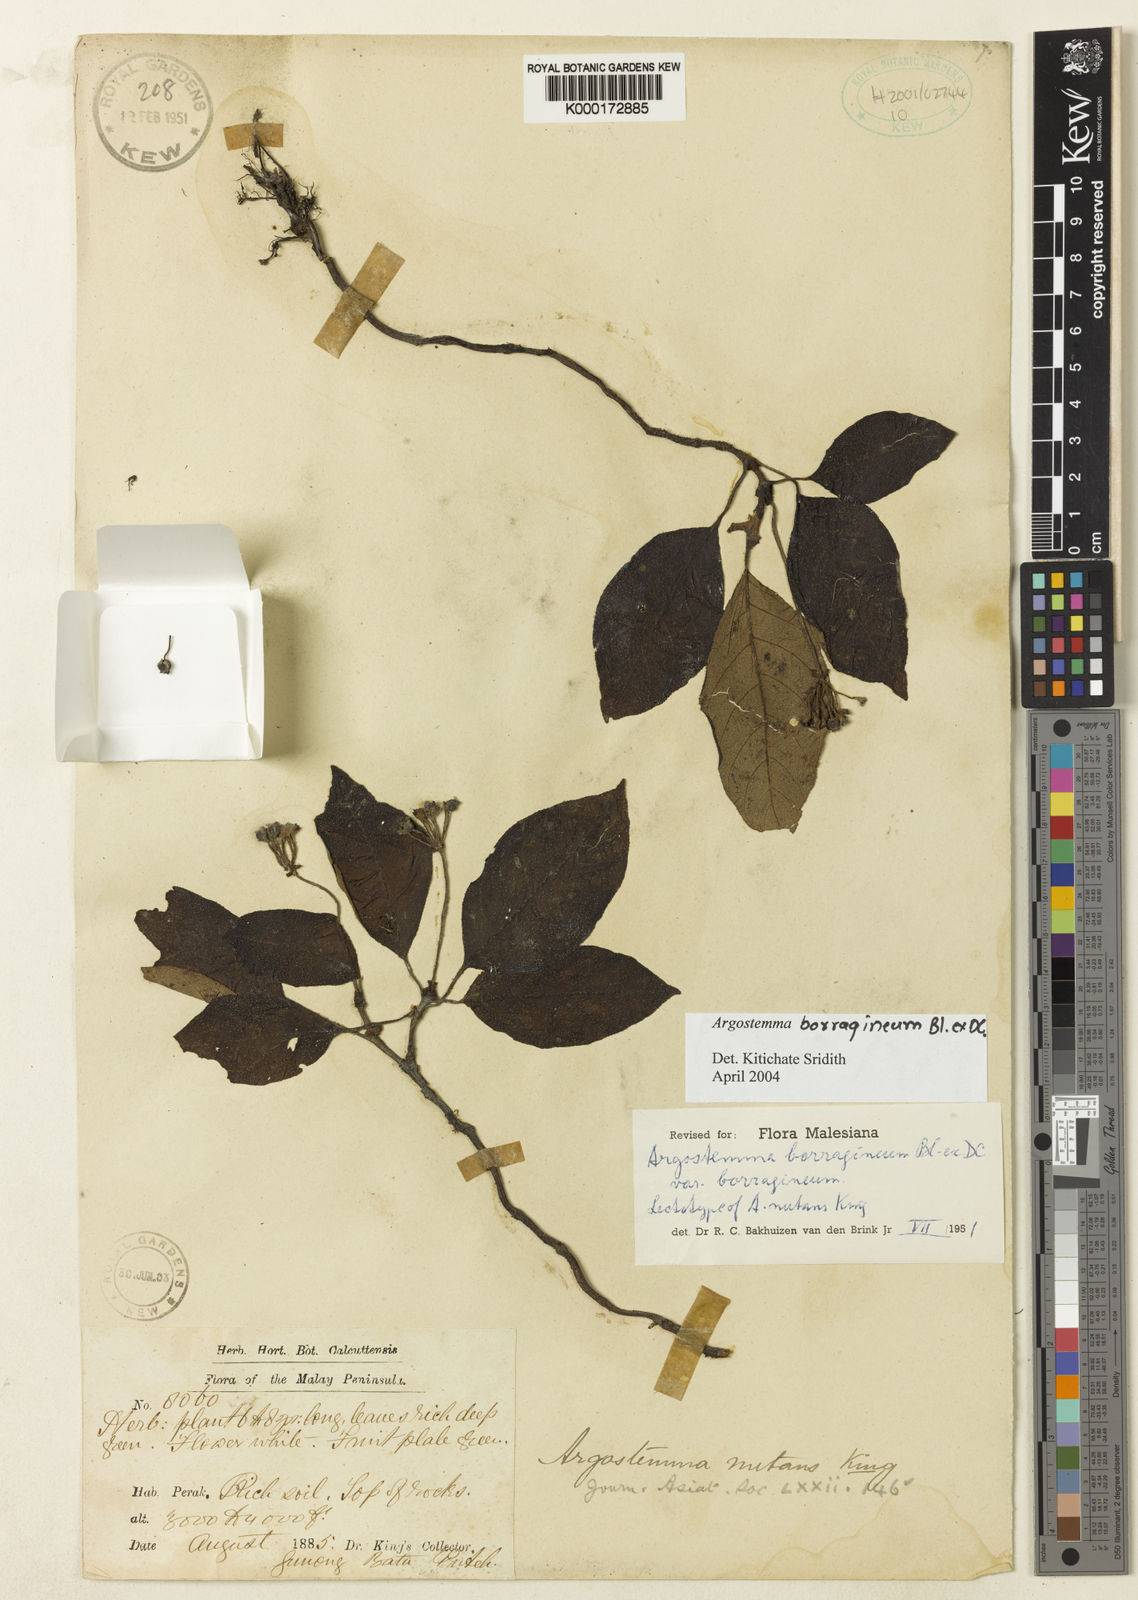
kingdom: Plantae
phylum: Tracheophyta
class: Magnoliopsida
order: Gentianales
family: Rubiaceae
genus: Argostemma
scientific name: Argostemma
